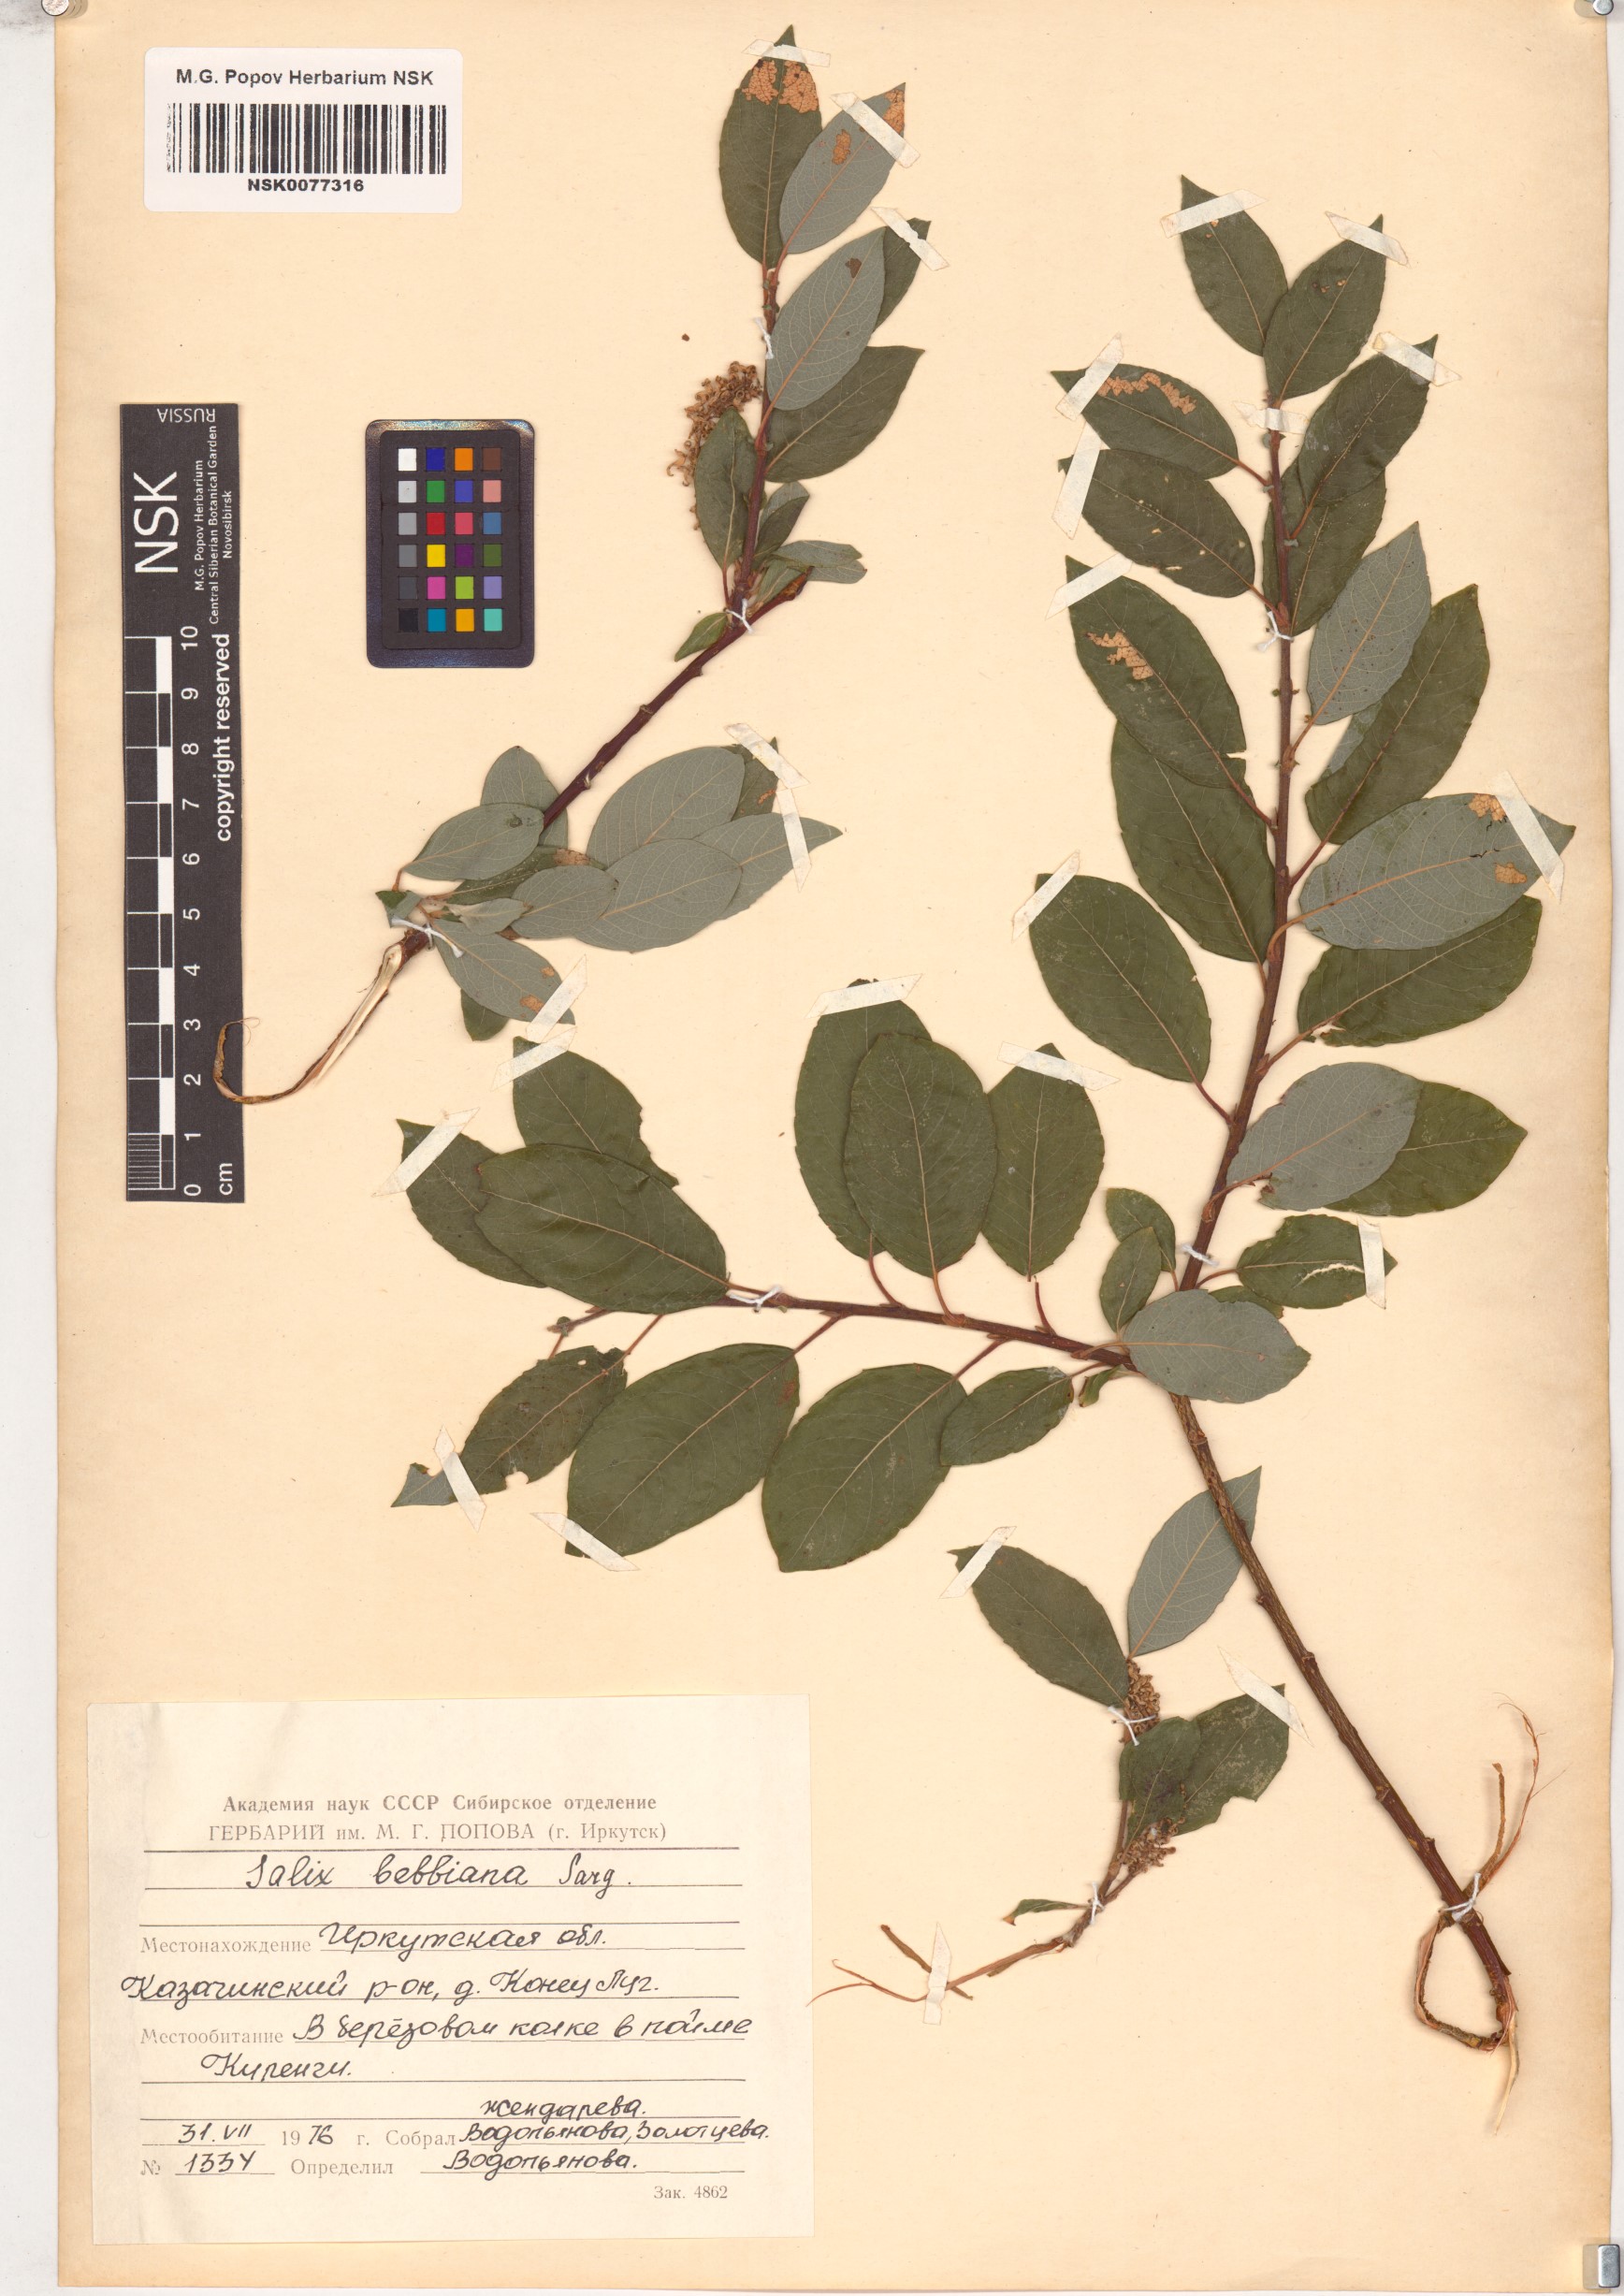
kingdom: Plantae
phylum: Tracheophyta
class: Magnoliopsida
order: Malpighiales
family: Salicaceae
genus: Salix
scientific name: Salix bebbiana
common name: Bebb's willow
